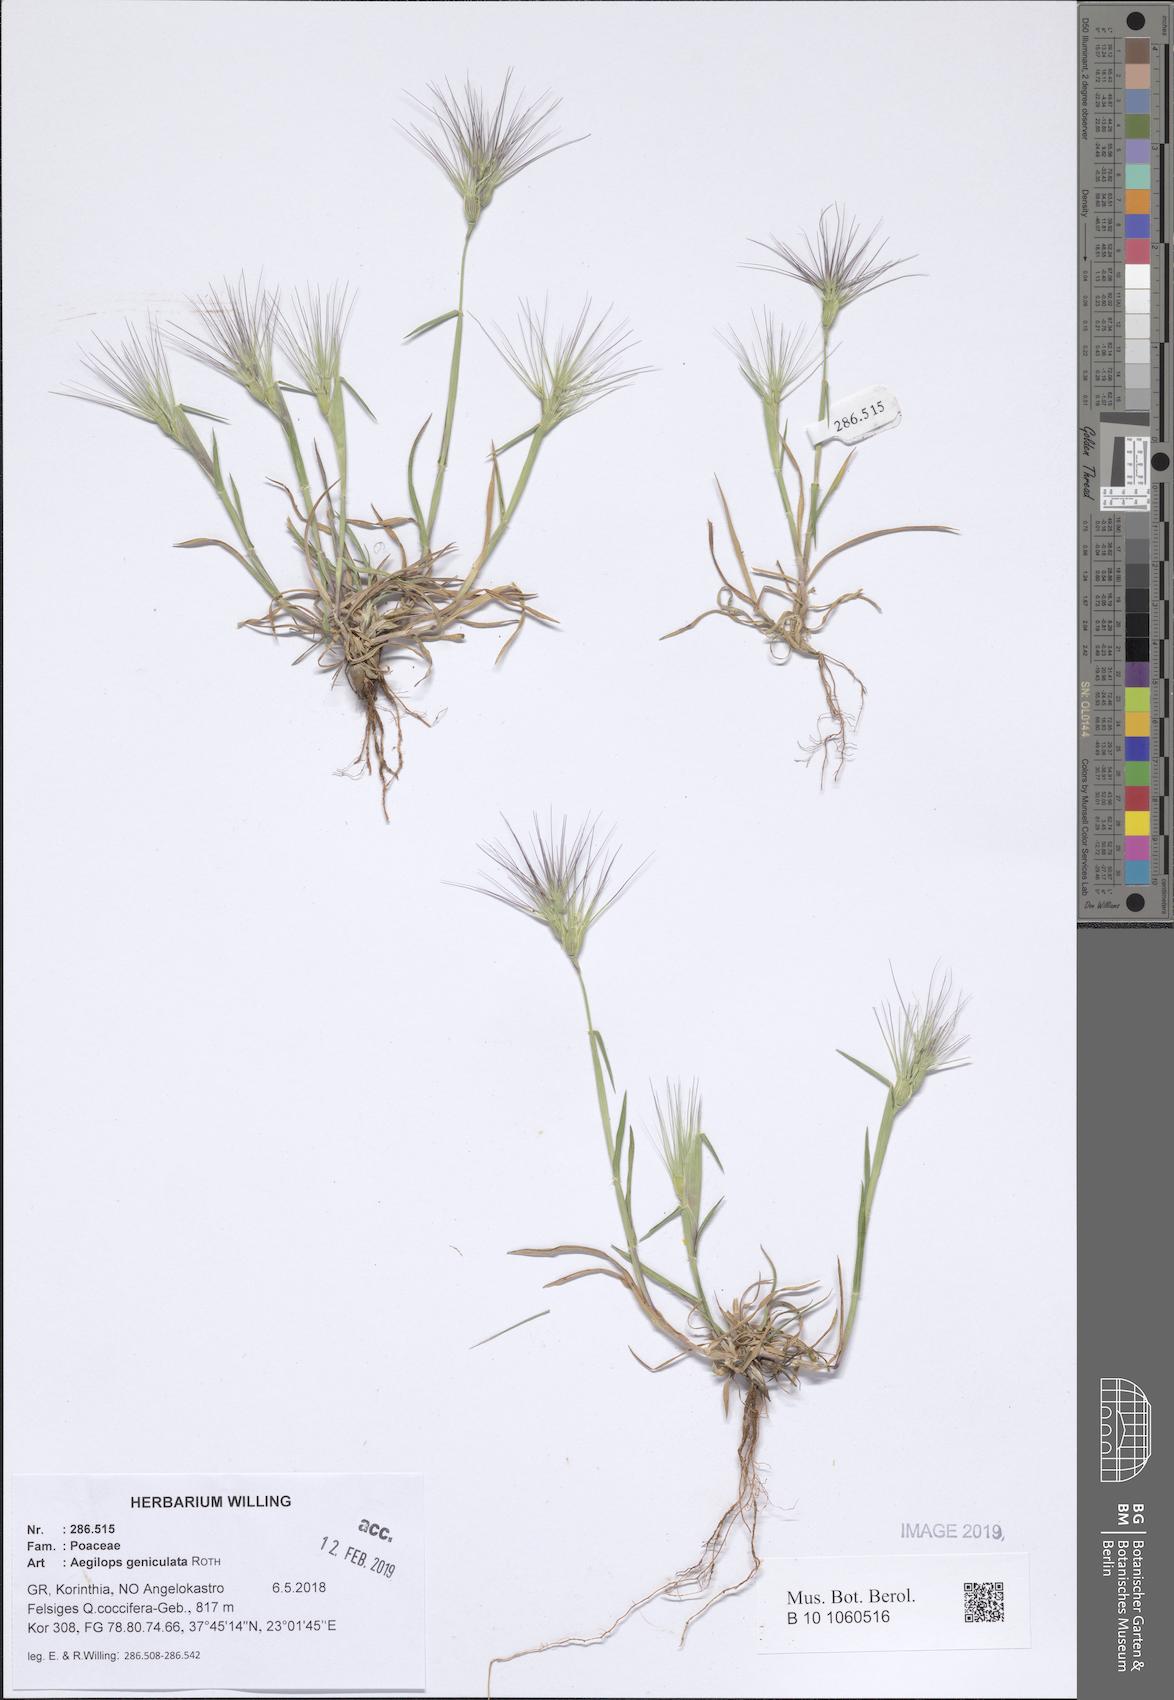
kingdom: Plantae
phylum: Tracheophyta
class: Liliopsida
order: Poales
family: Poaceae
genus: Aegilops
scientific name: Aegilops geniculata
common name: Ovate goat grass
